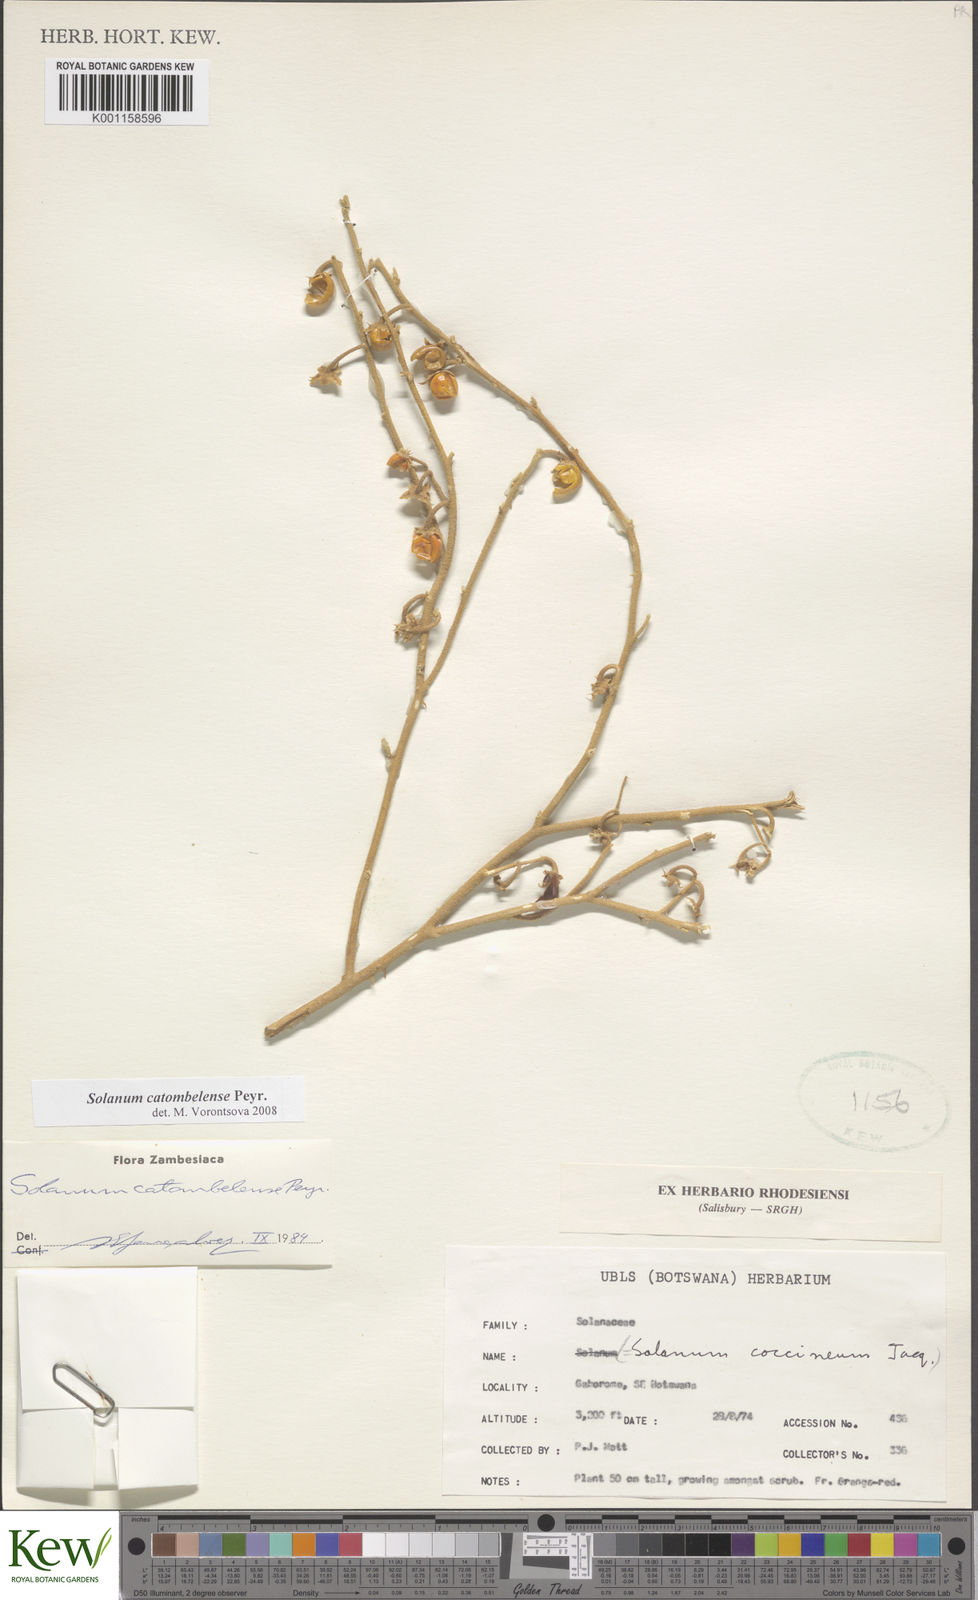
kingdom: Plantae
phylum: Tracheophyta
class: Magnoliopsida
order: Solanales
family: Solanaceae
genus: Solanum
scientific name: Solanum catombelense
